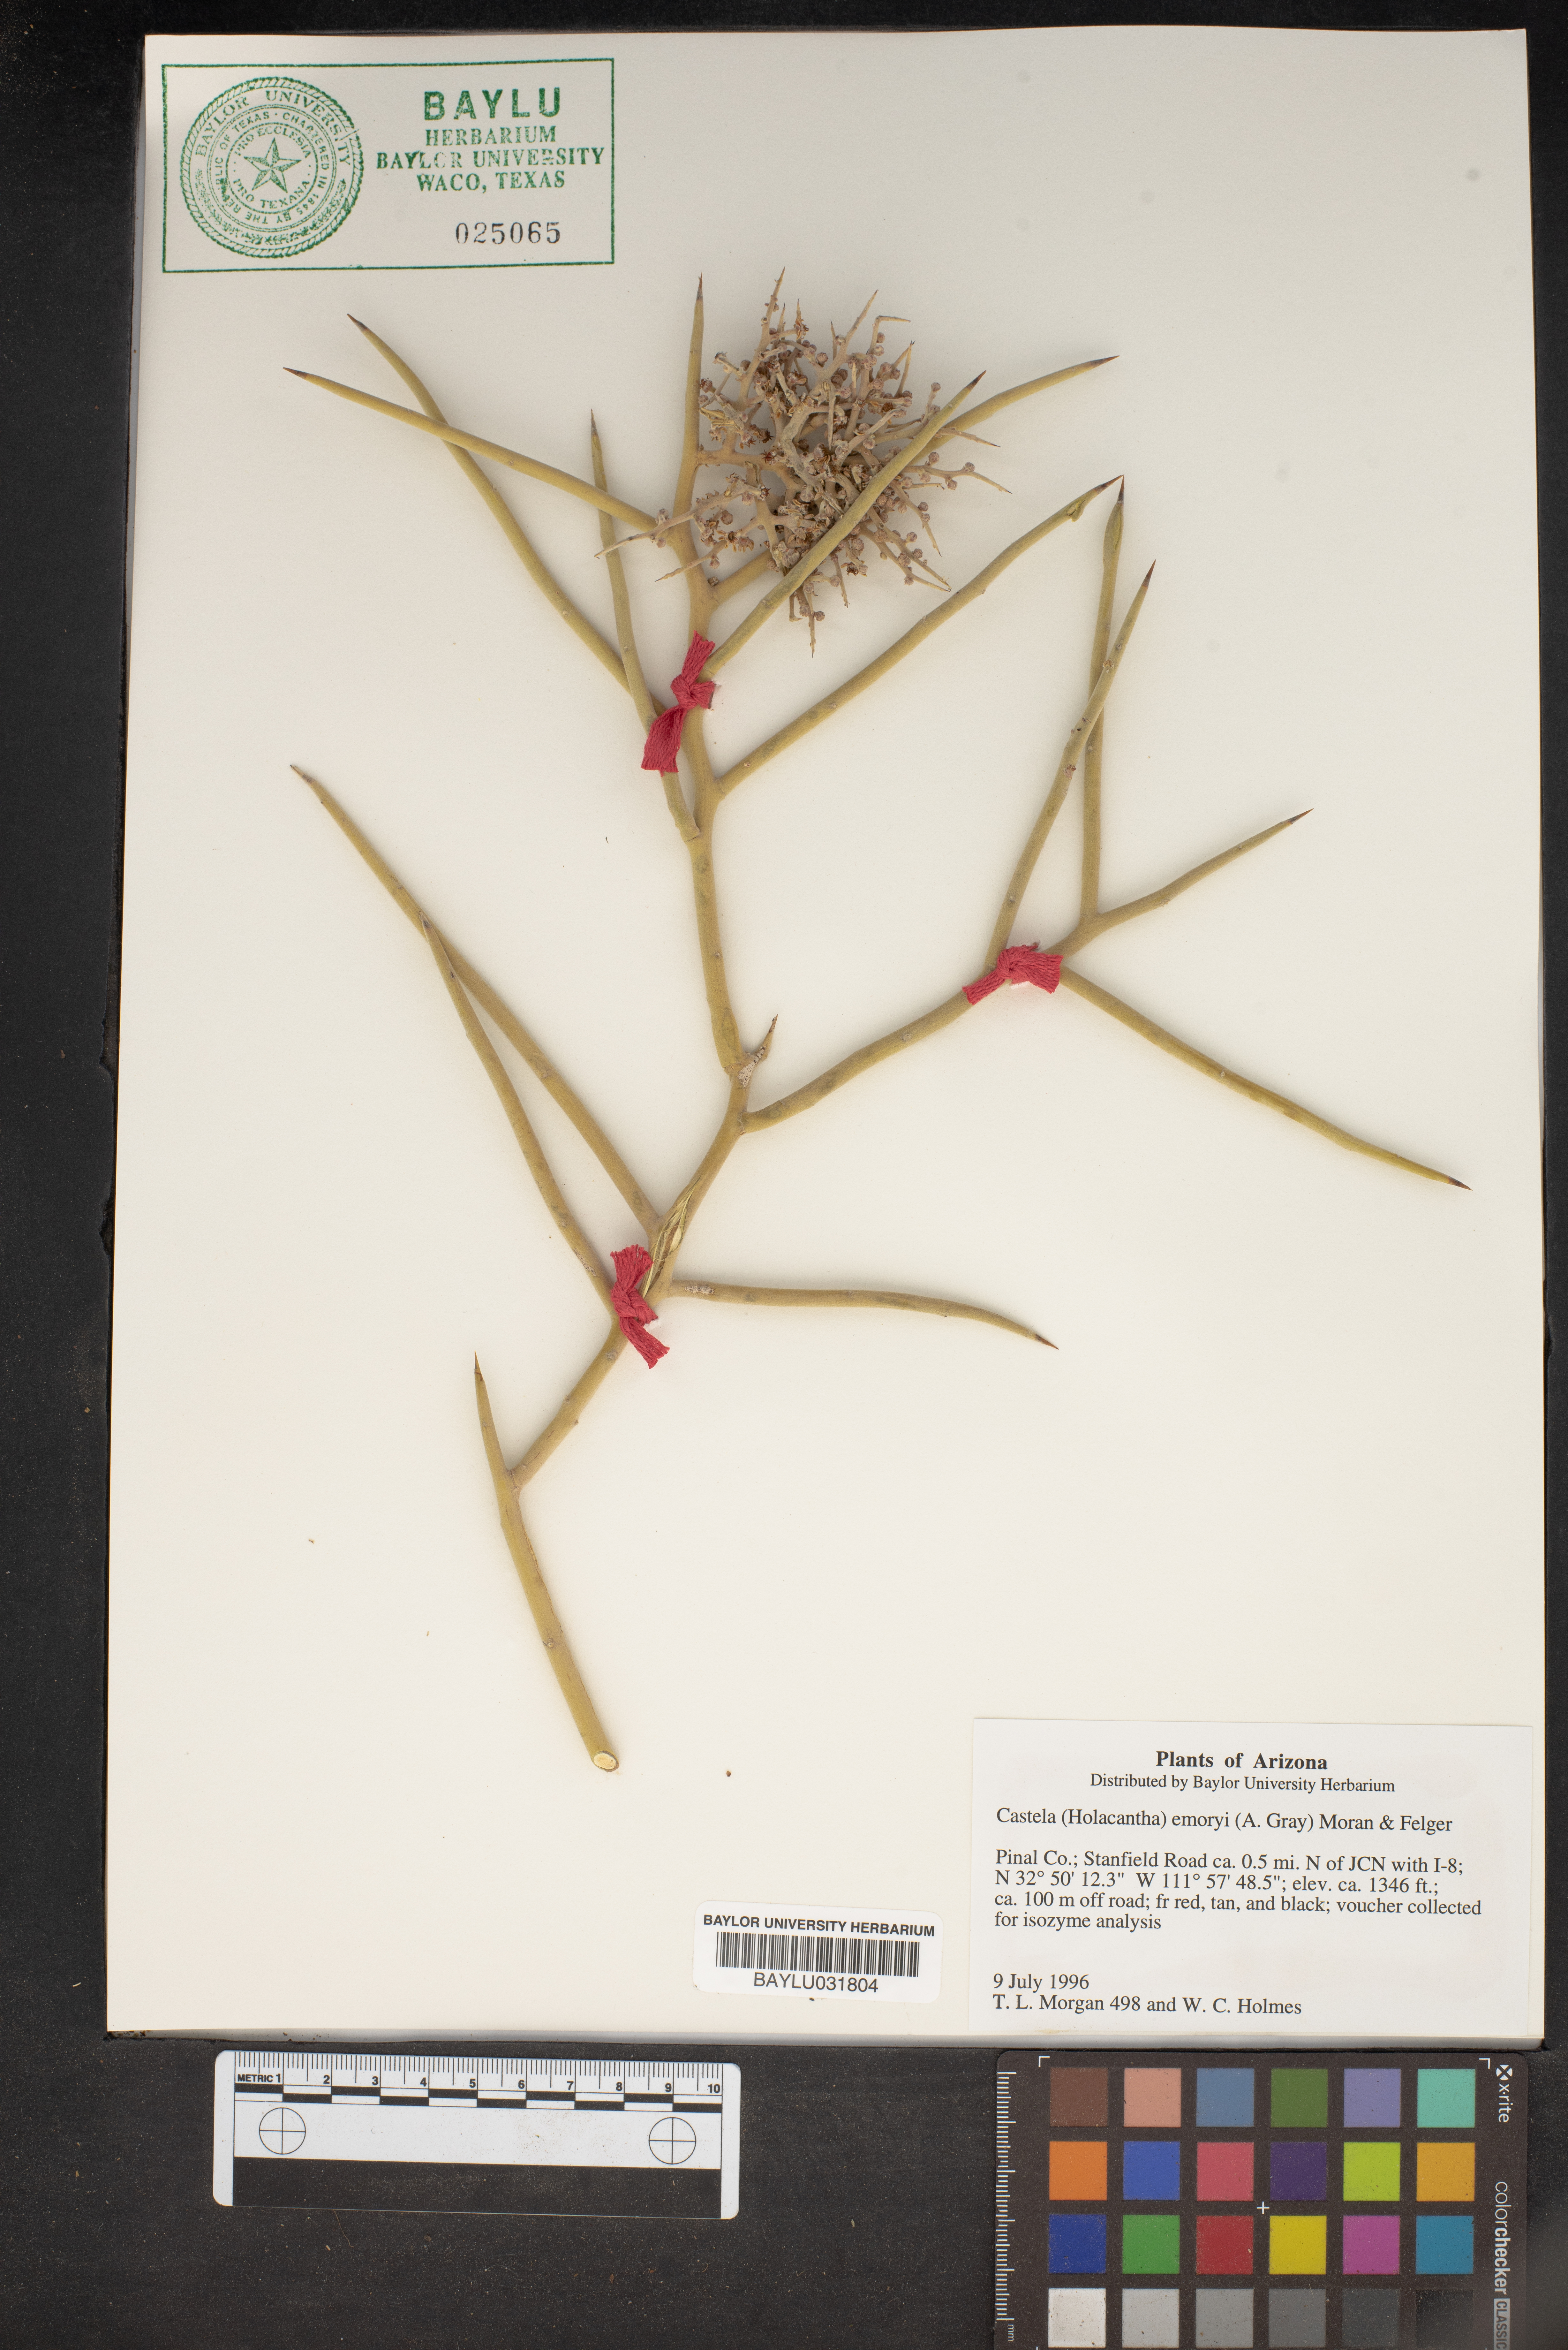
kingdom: Plantae
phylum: Tracheophyta
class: Magnoliopsida
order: Sapindales
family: Simaroubaceae
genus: Holacantha
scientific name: Holacantha emoryi
